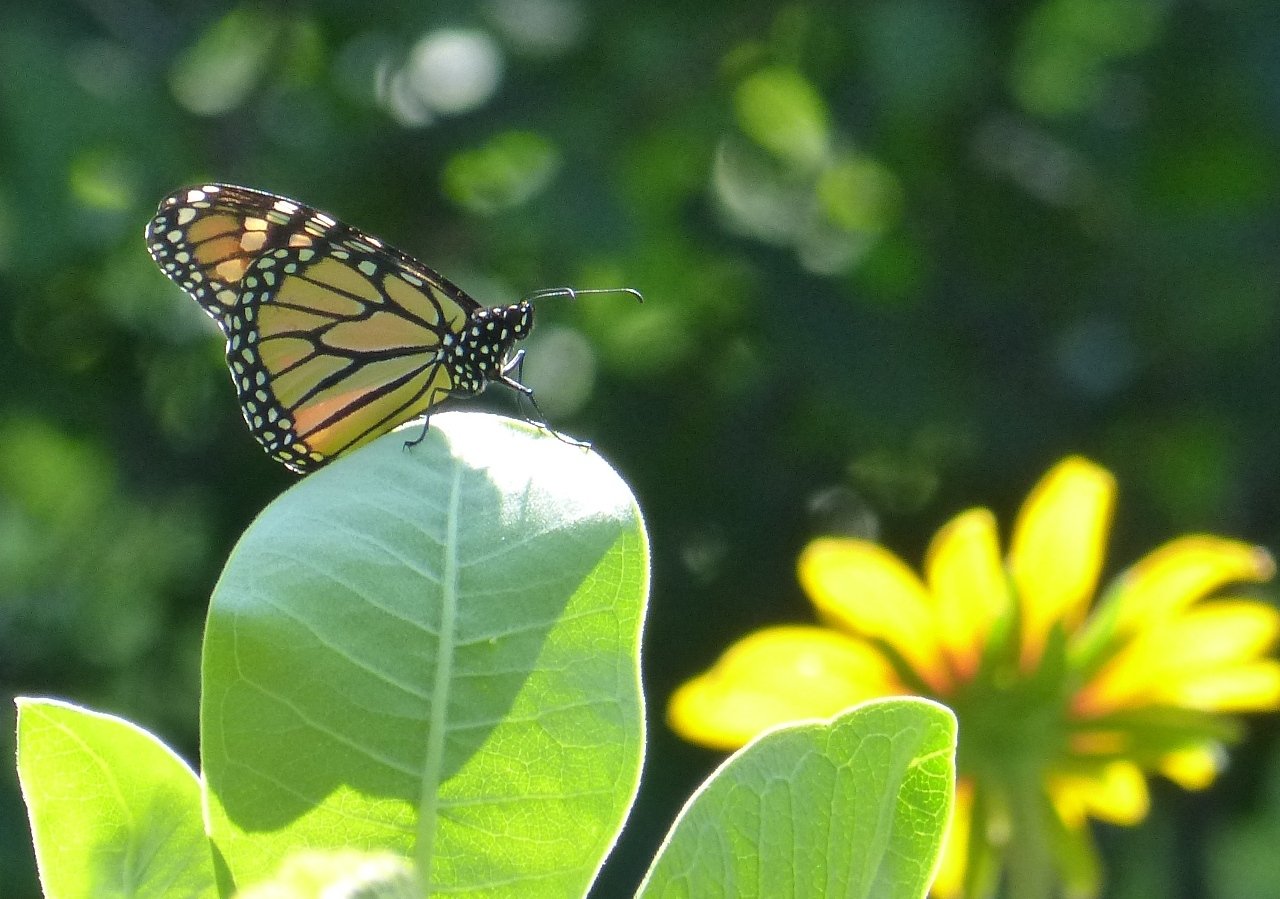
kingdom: Animalia
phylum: Arthropoda
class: Insecta
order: Lepidoptera
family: Nymphalidae
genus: Danaus
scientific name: Danaus plexippus
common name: Monarch
